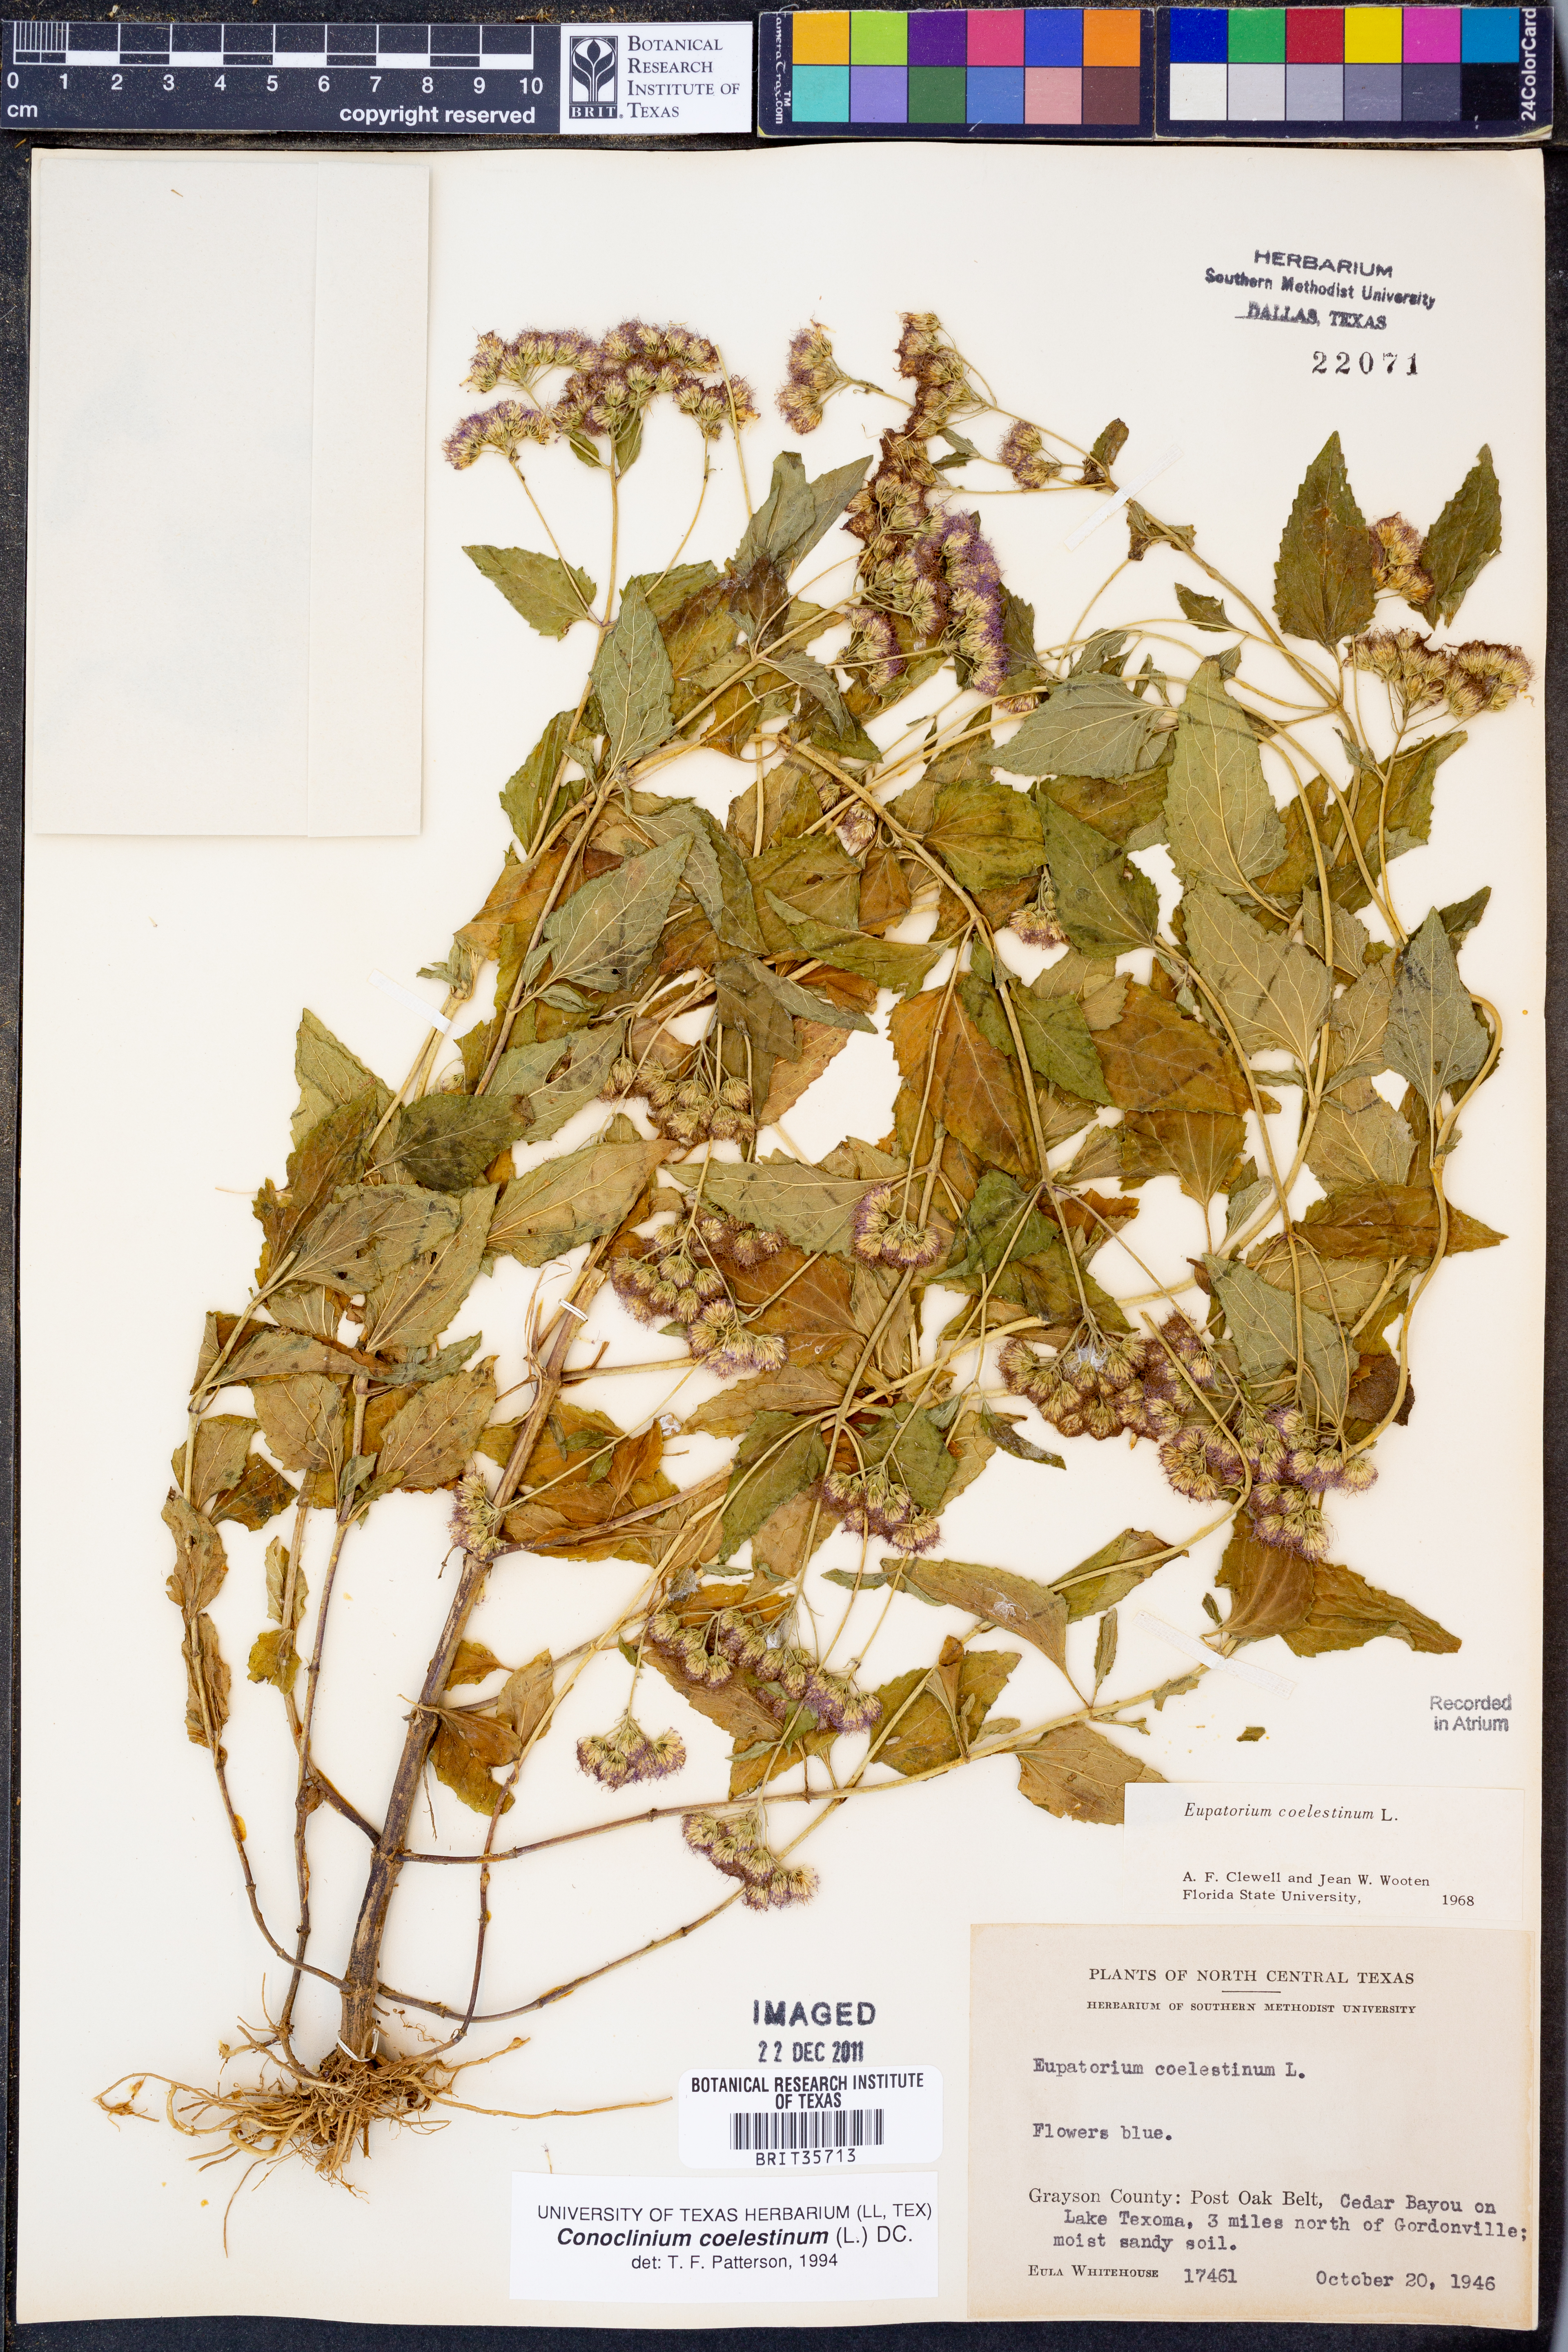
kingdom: Plantae
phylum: Tracheophyta
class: Magnoliopsida
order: Asterales
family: Asteraceae
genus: Conoclinium
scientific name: Conoclinium coelestinum
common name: Blue mistflower
